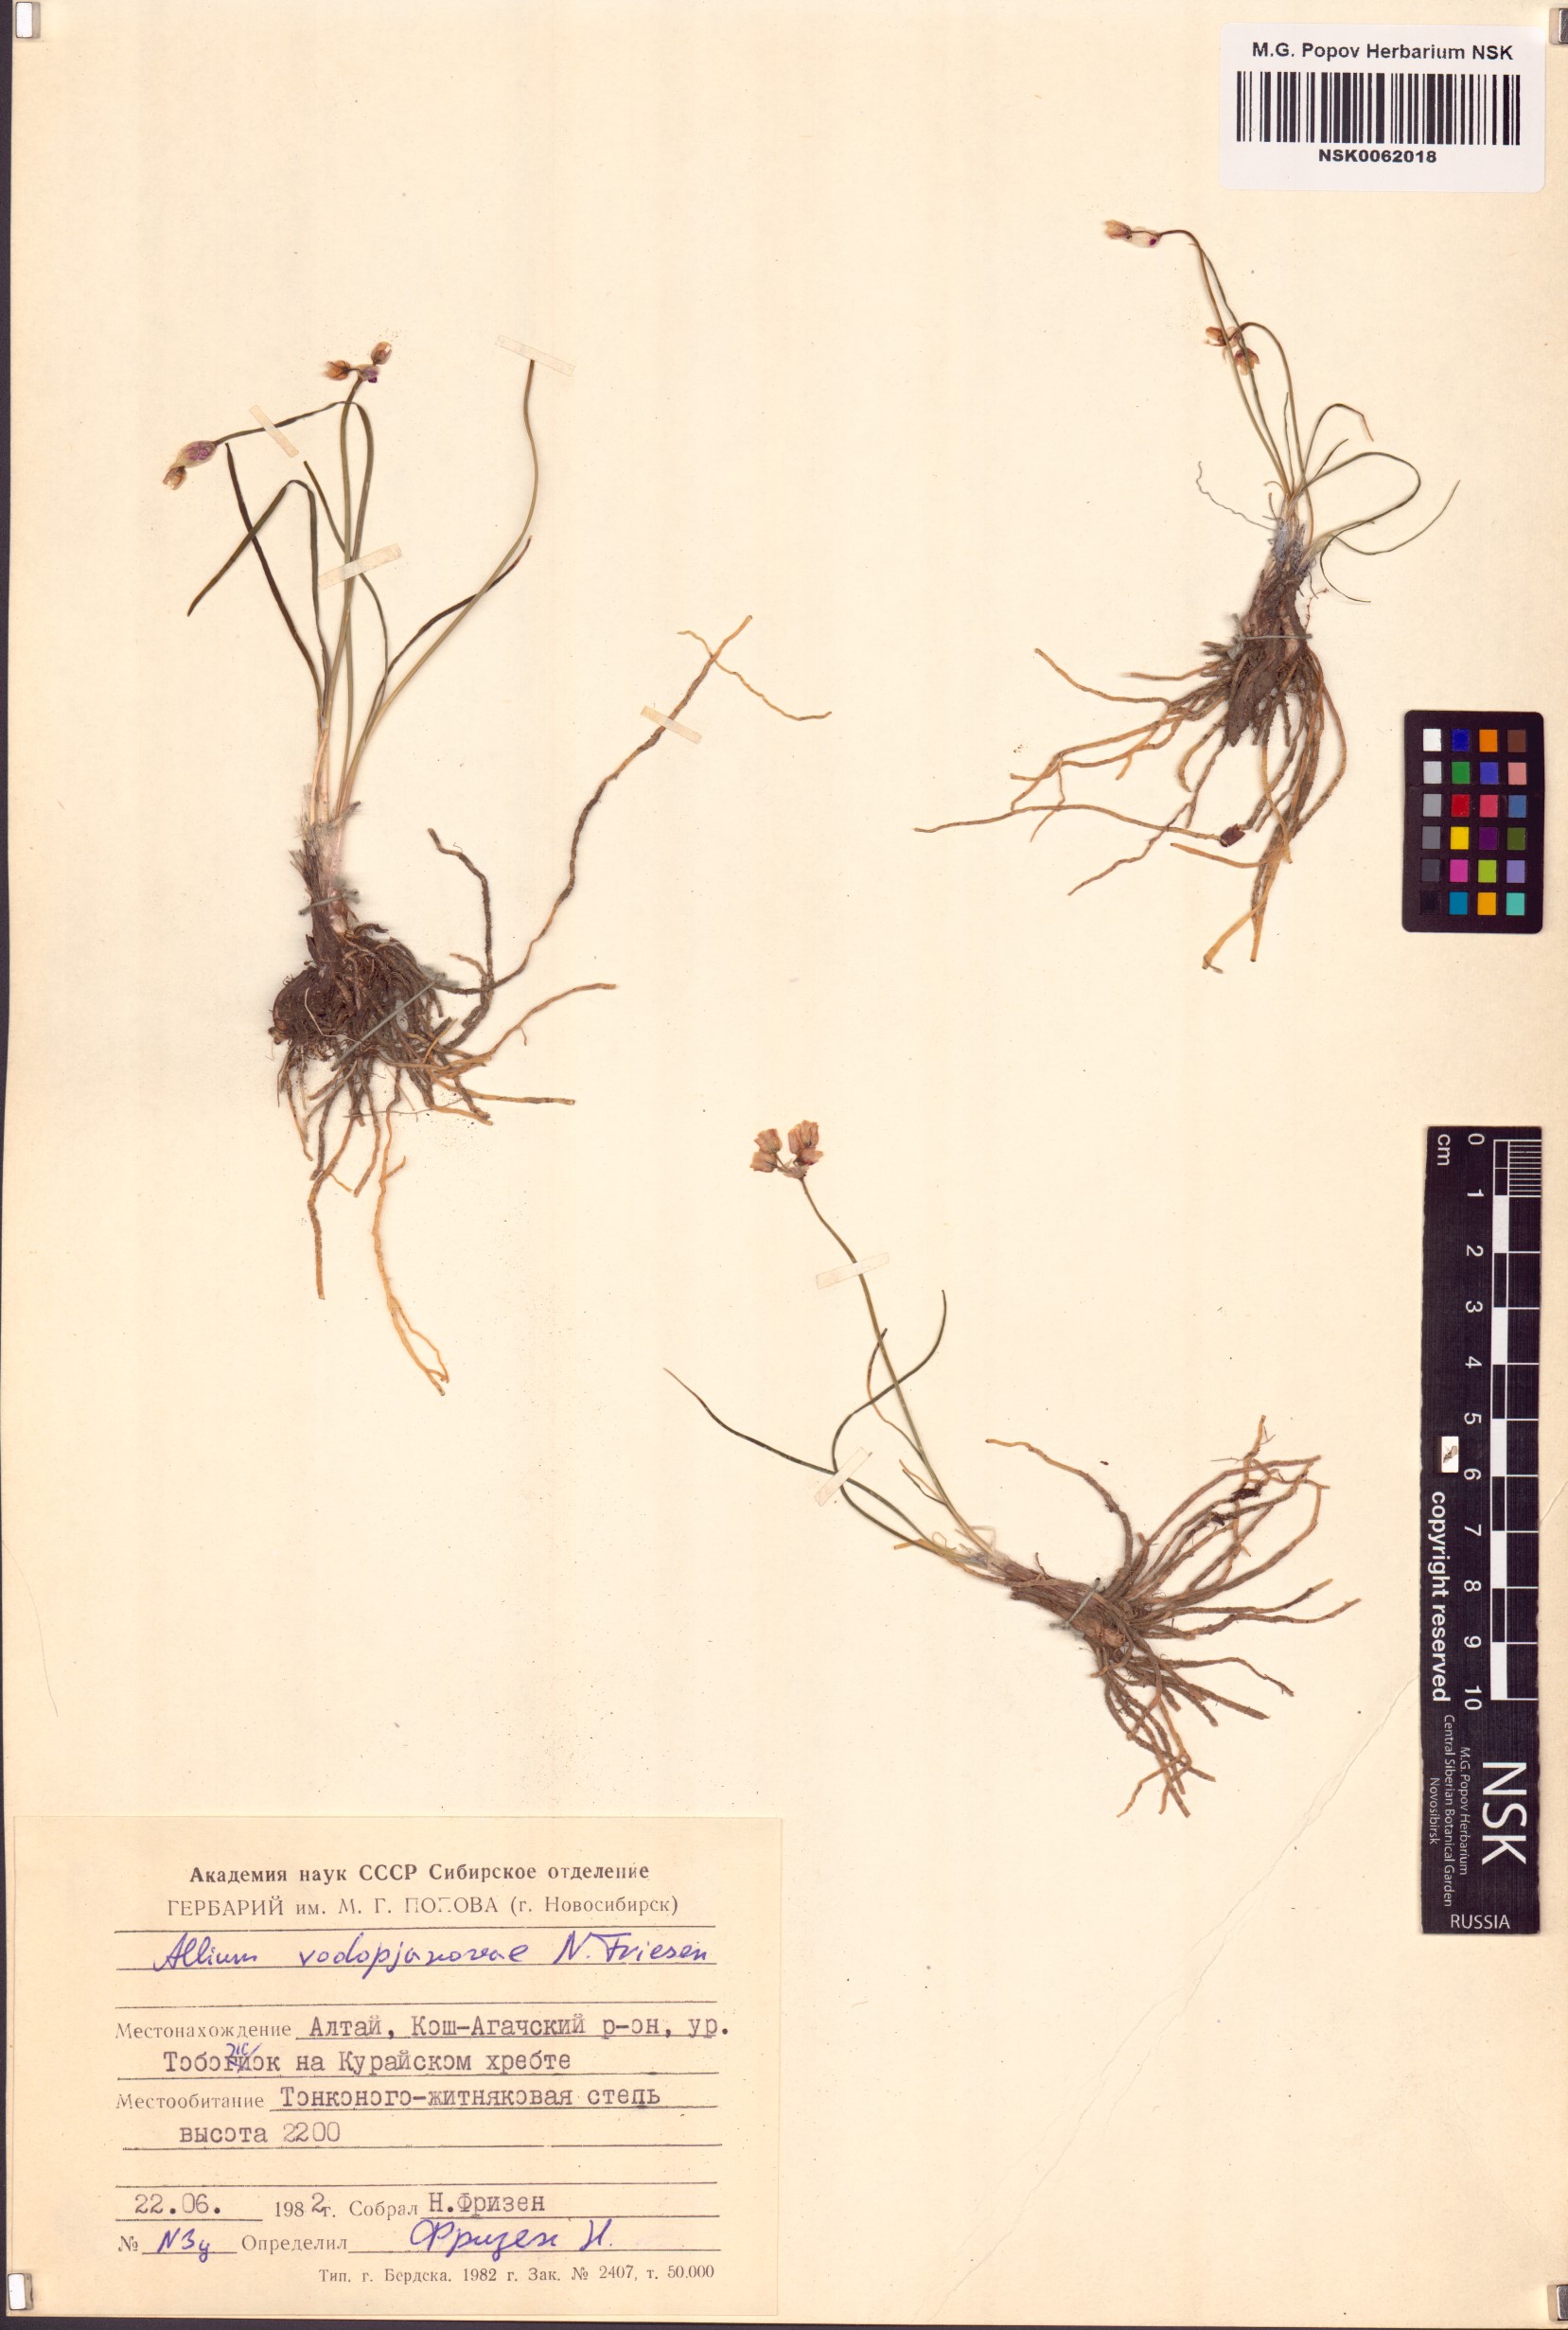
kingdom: Plantae
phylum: Tracheophyta
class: Liliopsida
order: Asparagales
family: Amaryllidaceae
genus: Allium
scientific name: Allium vodopjanovae
